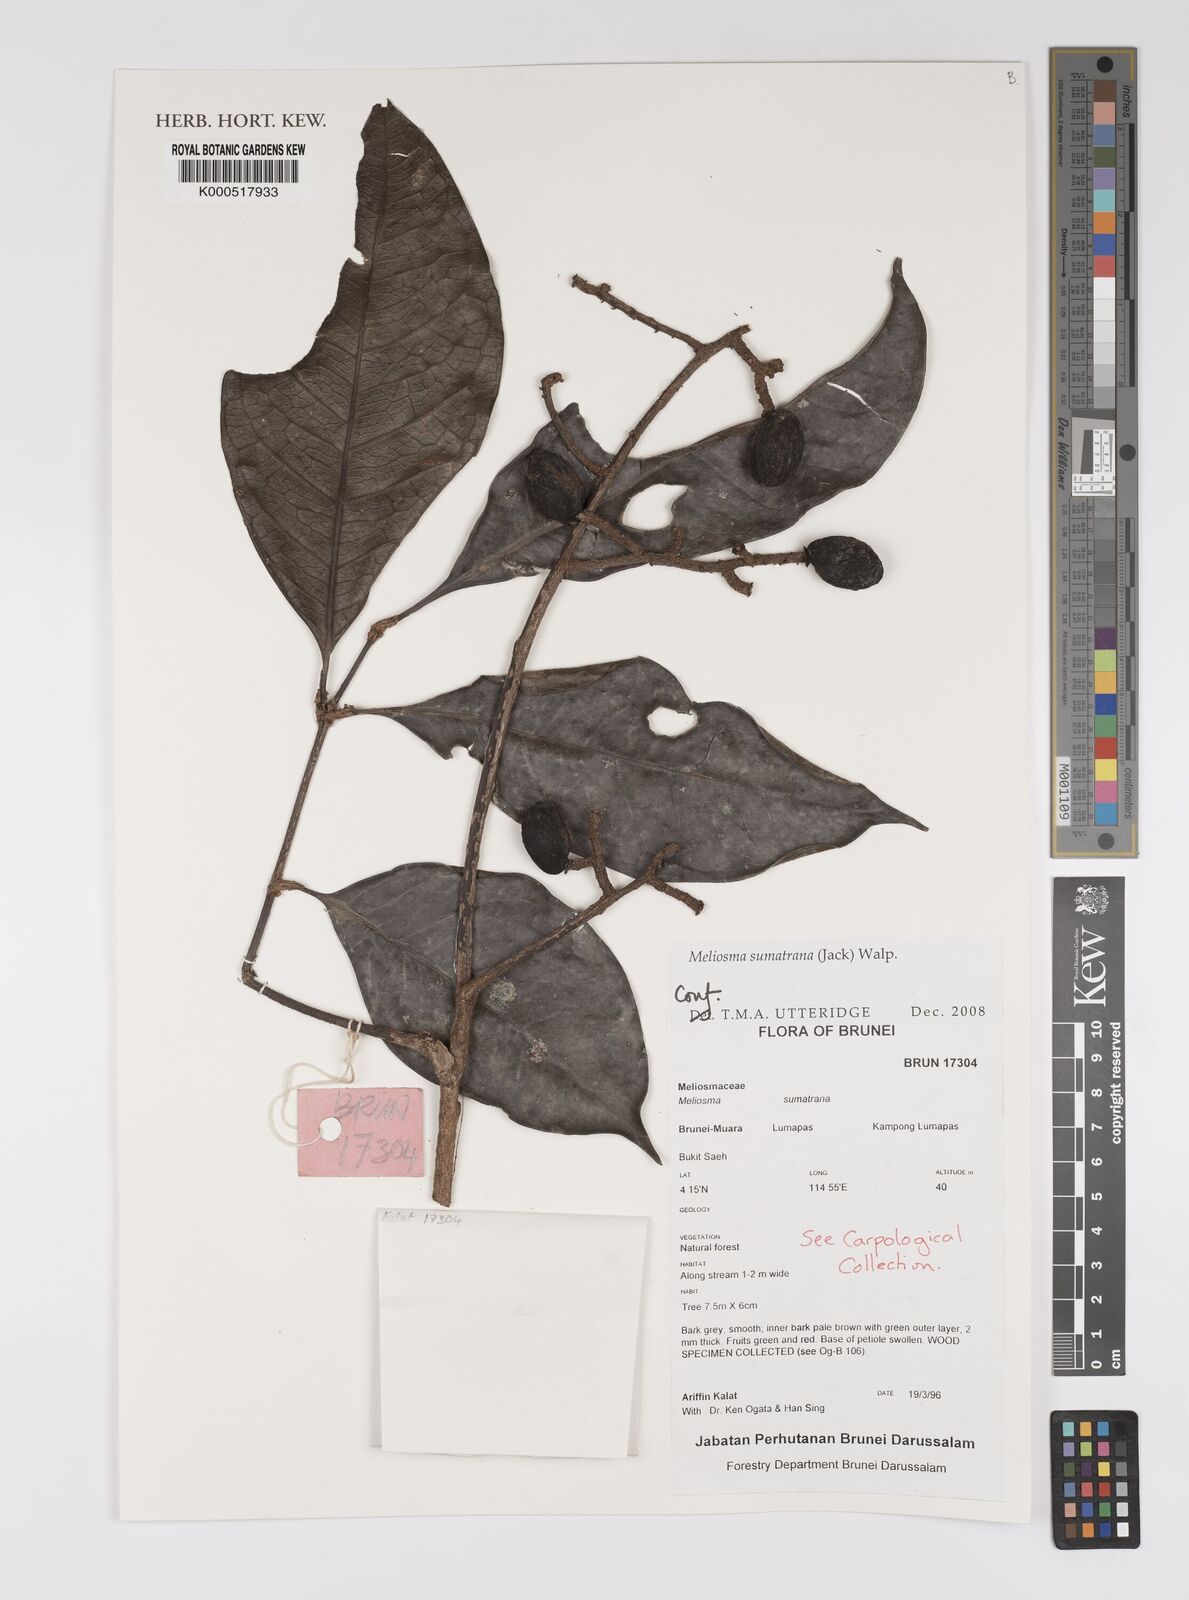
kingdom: Plantae
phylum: Tracheophyta
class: Magnoliopsida
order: Proteales
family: Sabiaceae
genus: Meliosma
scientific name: Meliosma sumatrana
